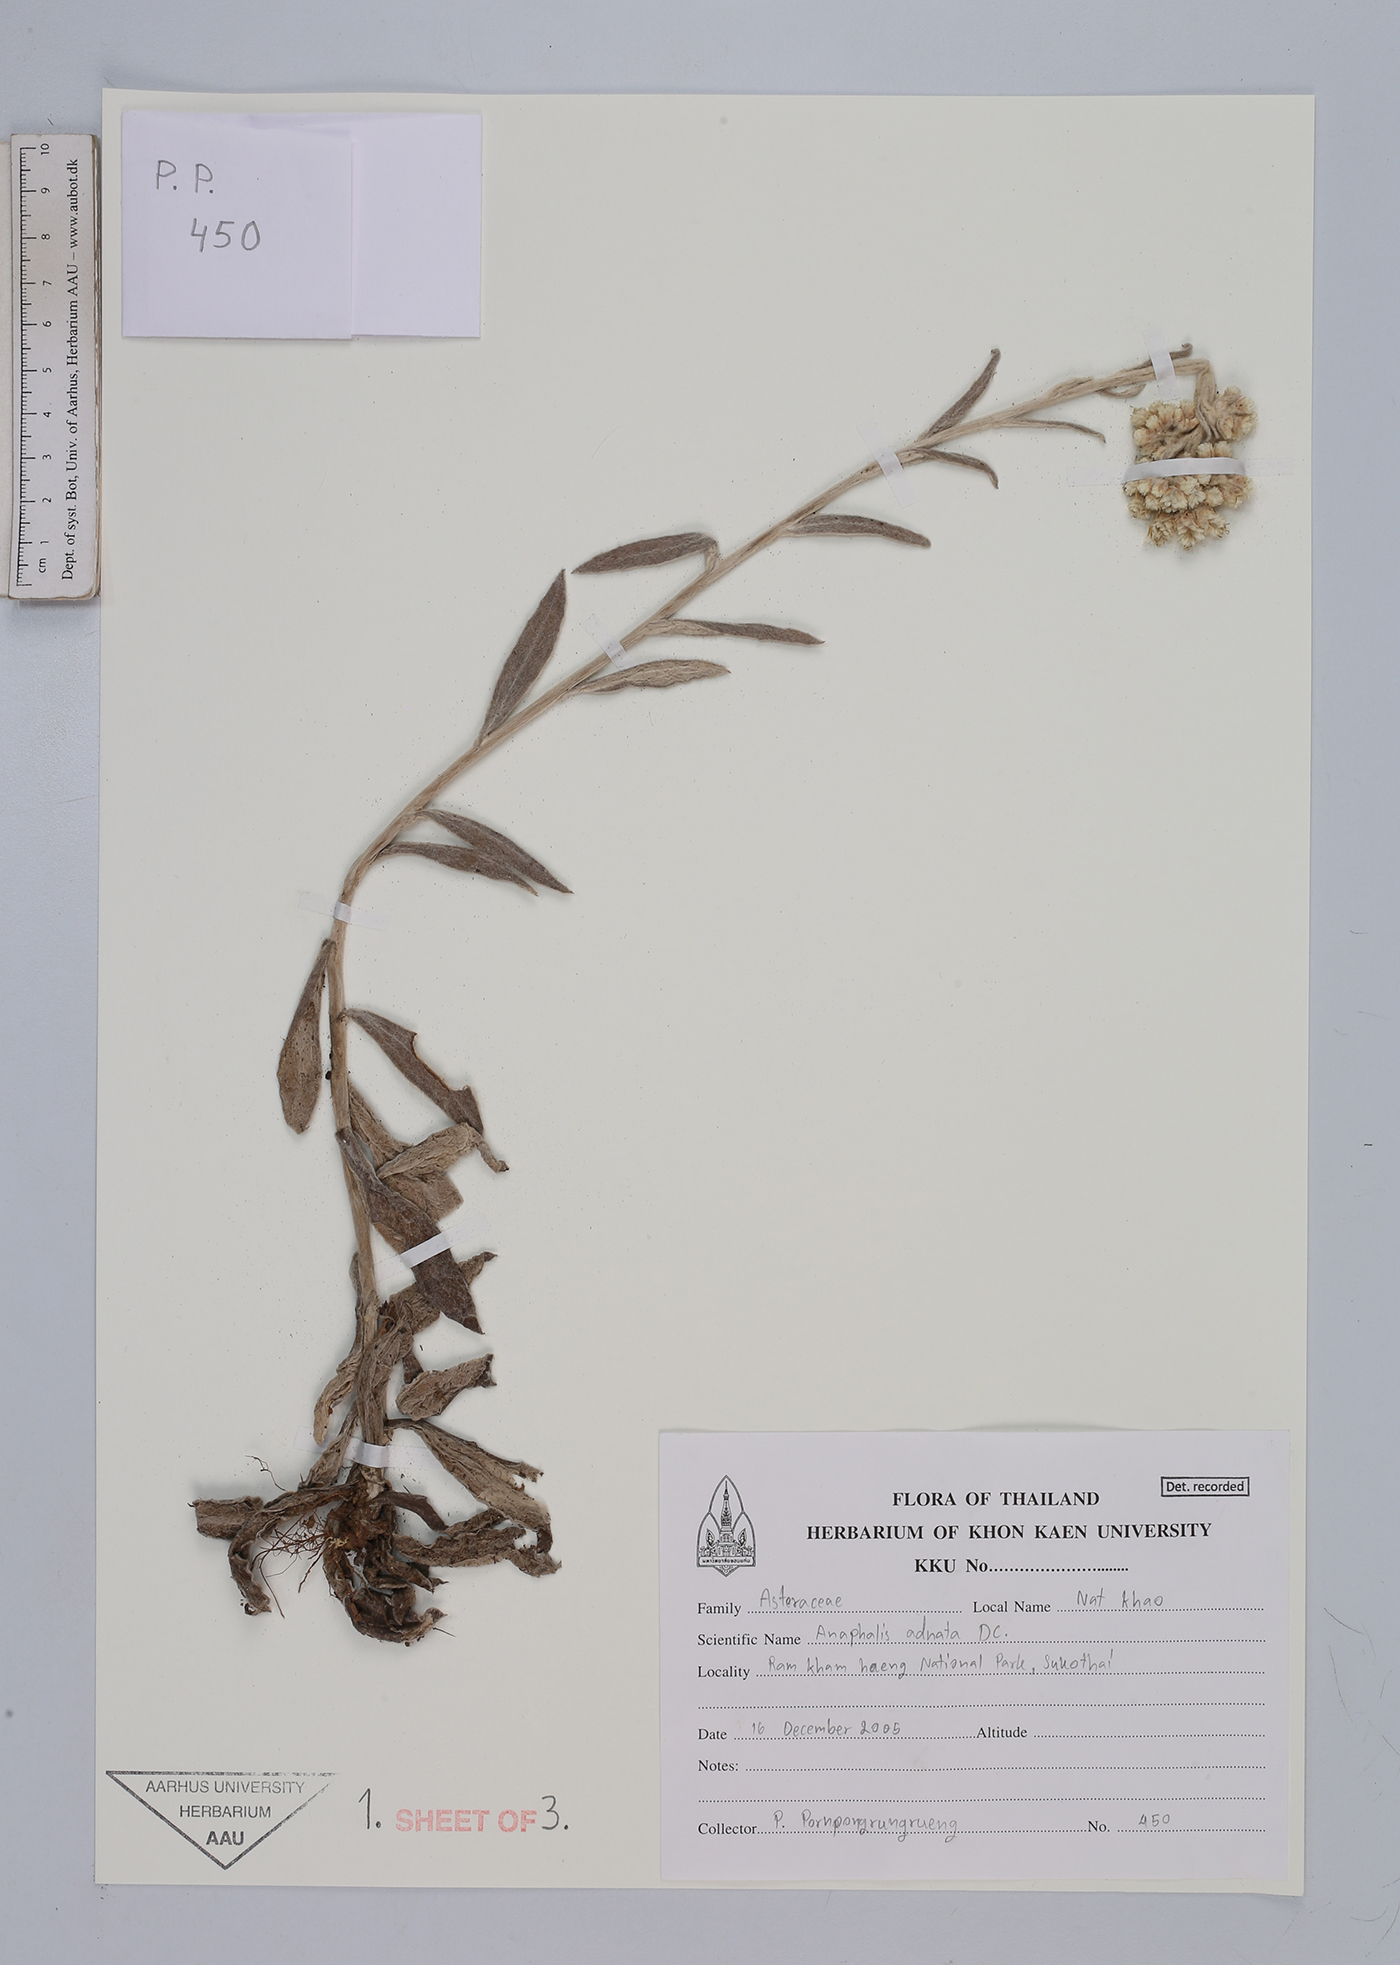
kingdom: Plantae
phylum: Tracheophyta
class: Magnoliopsida
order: Asterales
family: Asteraceae
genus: Pseudognaphalium
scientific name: Pseudognaphalium adnatum
